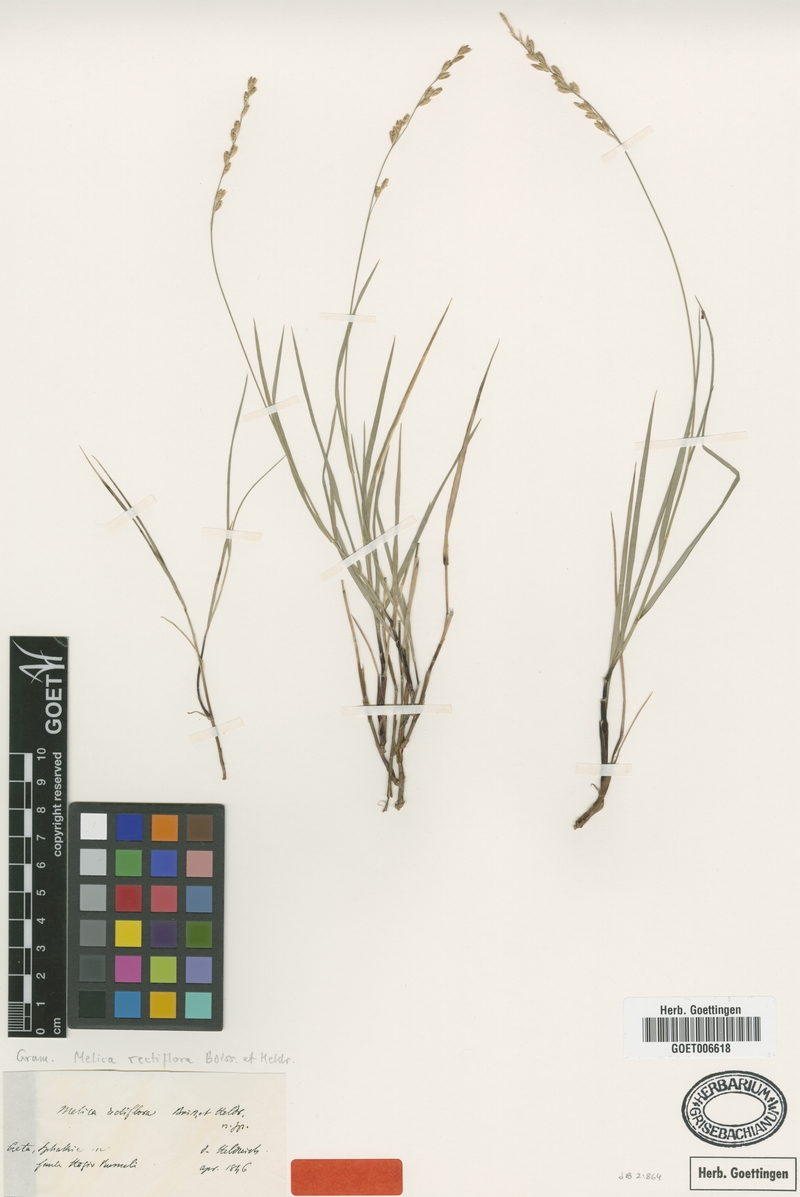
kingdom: Plantae
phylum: Tracheophyta
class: Liliopsida
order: Poales
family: Poaceae
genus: Melica
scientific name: Melica rectiflora
